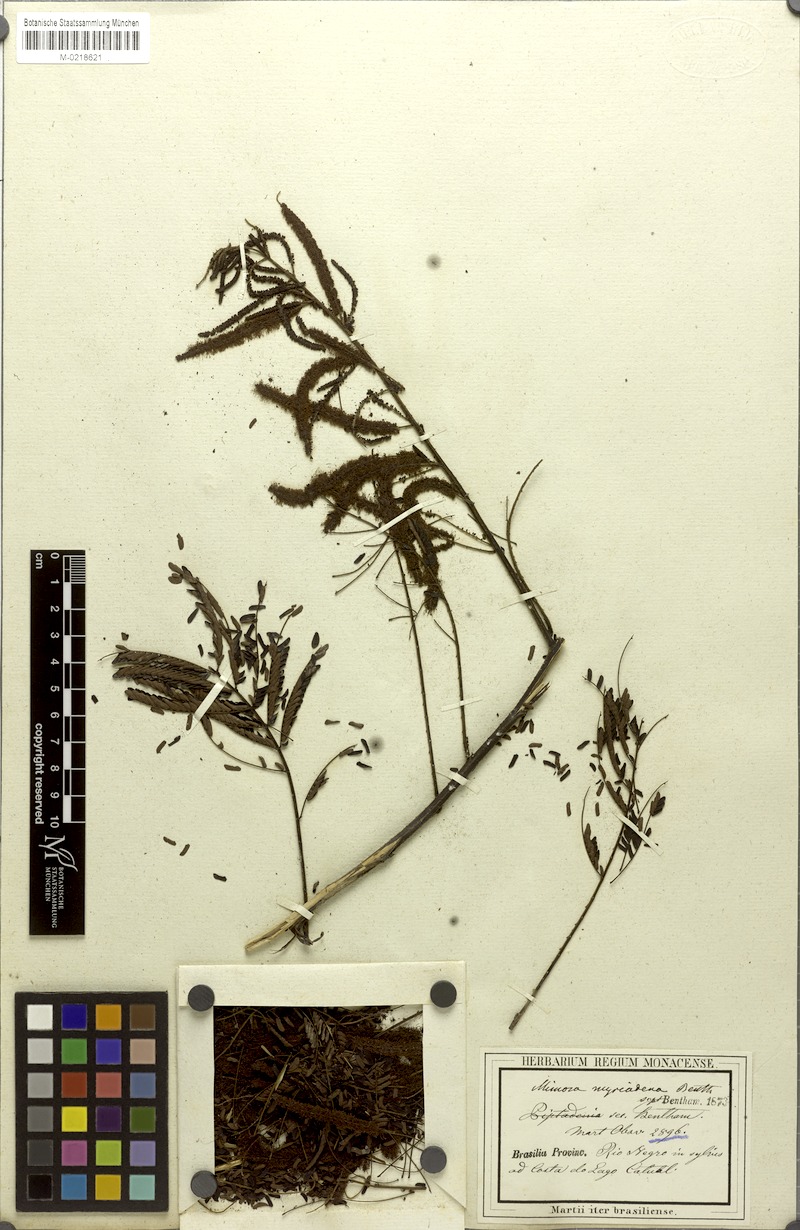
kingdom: Plantae
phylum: Tracheophyta
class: Magnoliopsida
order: Fabales
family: Fabaceae
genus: Mimosa
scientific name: Mimosa myriadenia
